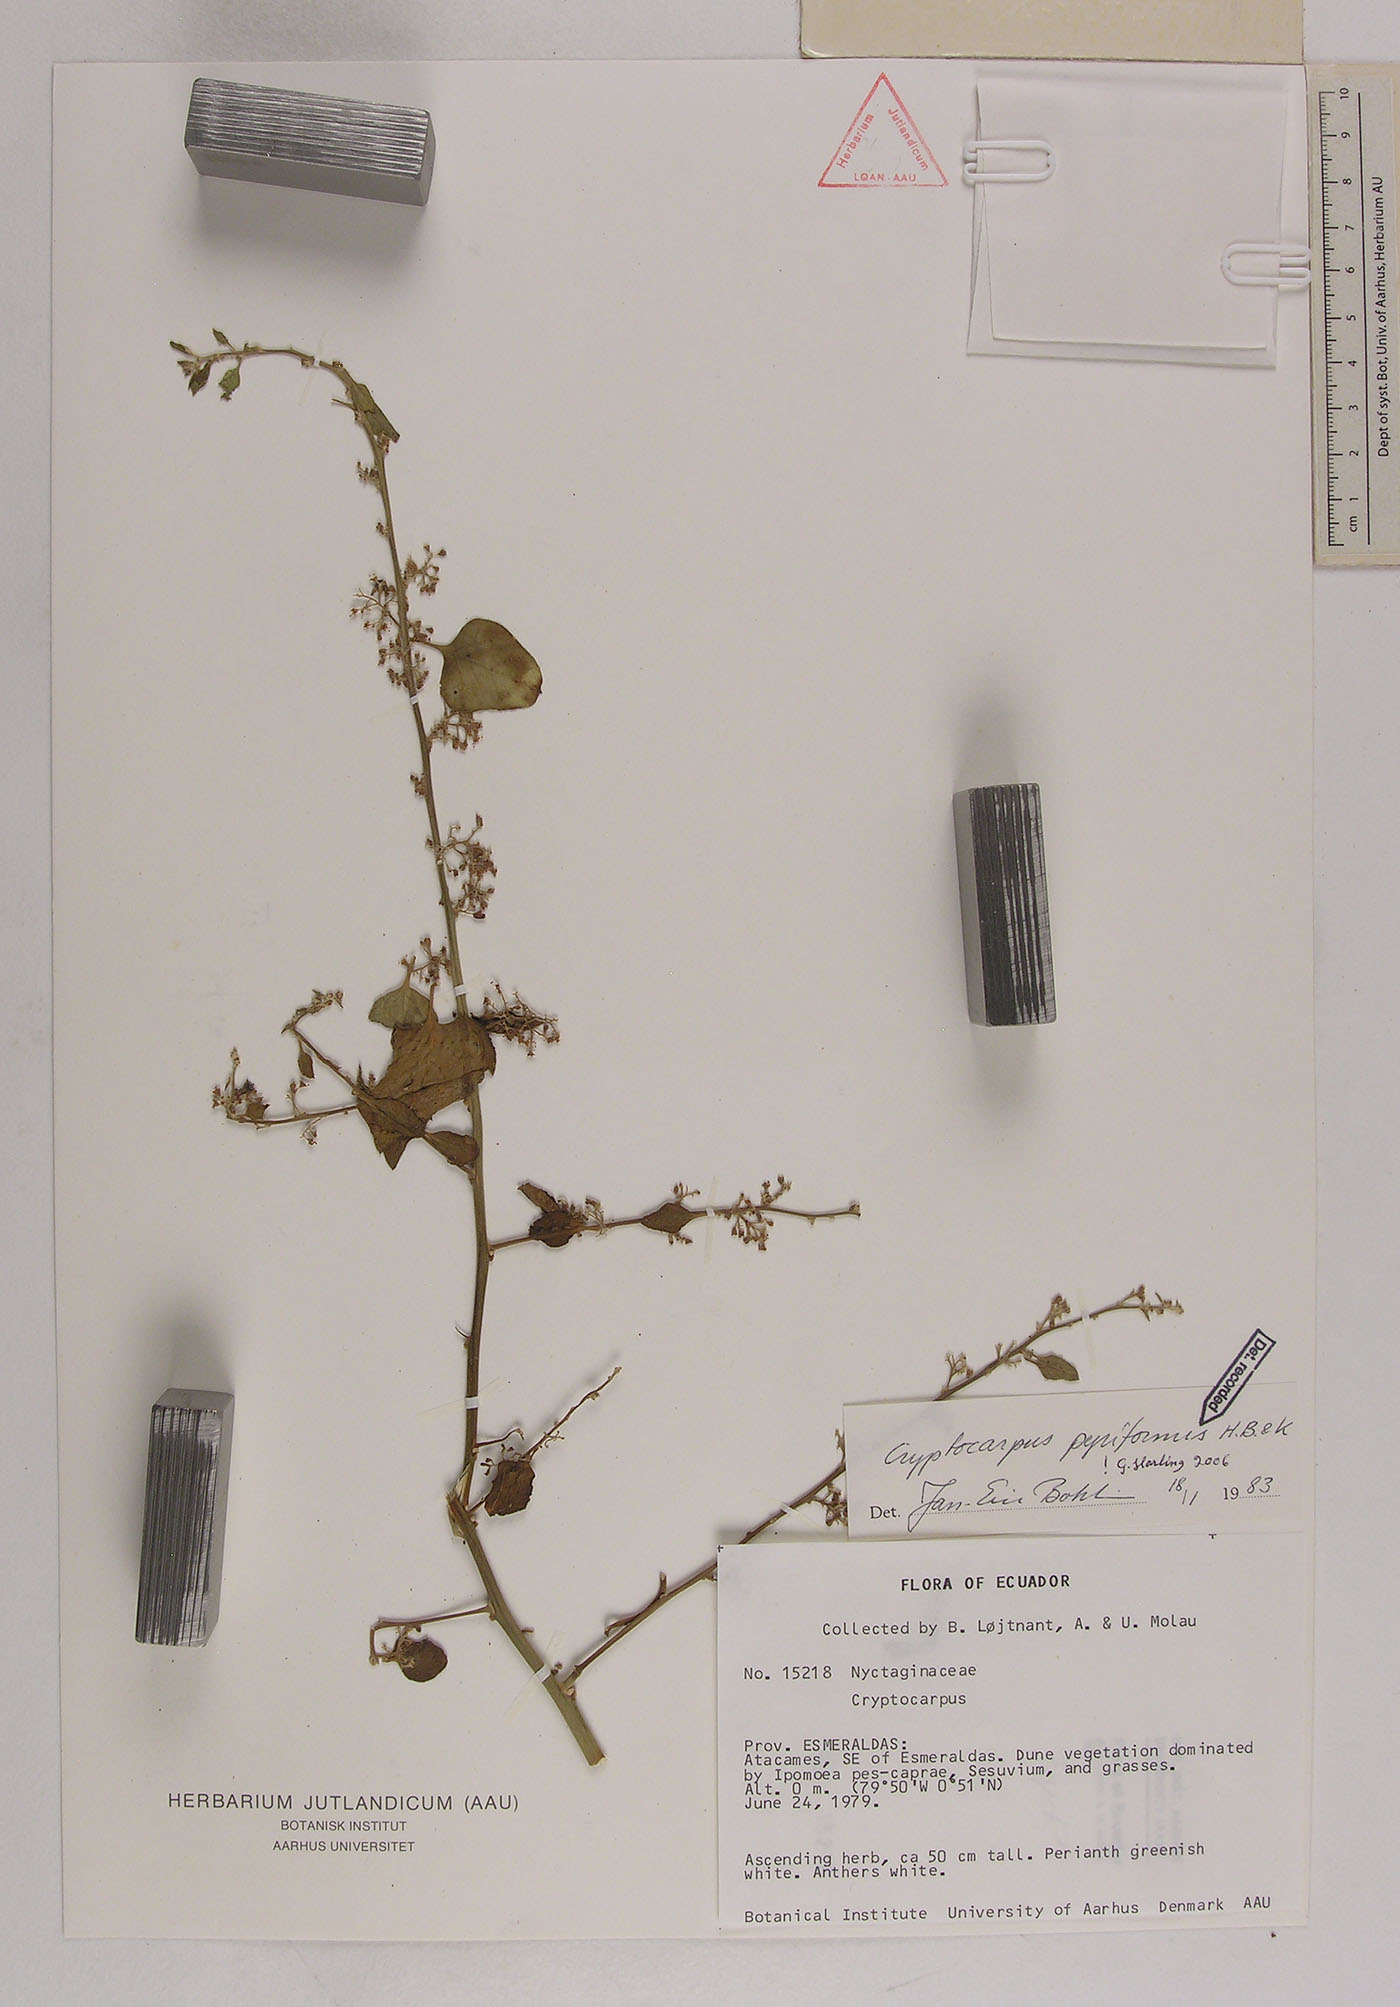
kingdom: Plantae
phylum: Tracheophyta
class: Magnoliopsida
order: Caryophyllales
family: Nyctaginaceae
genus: Cryptocarpus
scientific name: Cryptocarpus pyriformis
